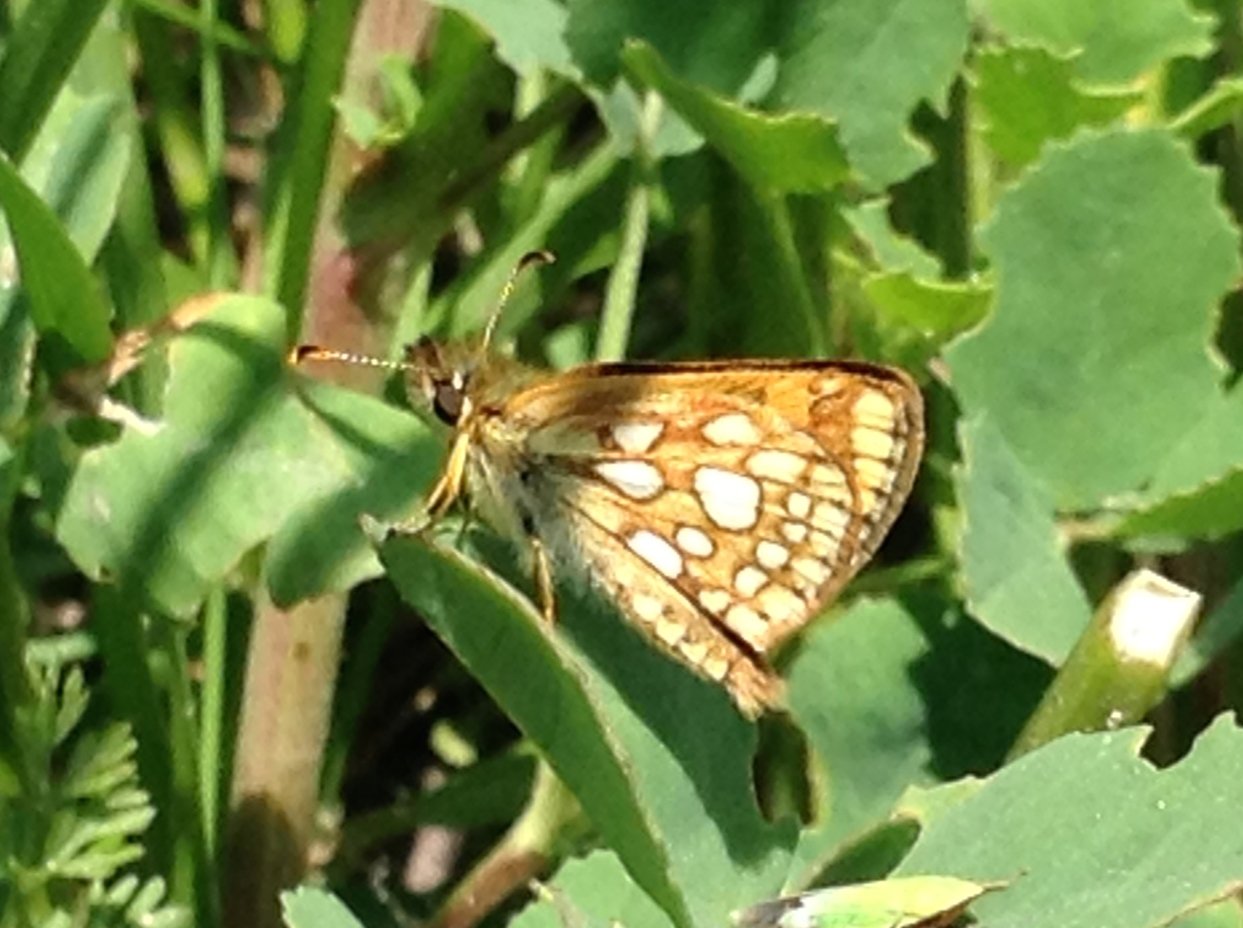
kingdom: Animalia
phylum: Arthropoda
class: Insecta
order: Lepidoptera
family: Hesperiidae
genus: Carterocephalus
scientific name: Carterocephalus palaemon
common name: Chequered Skipper
